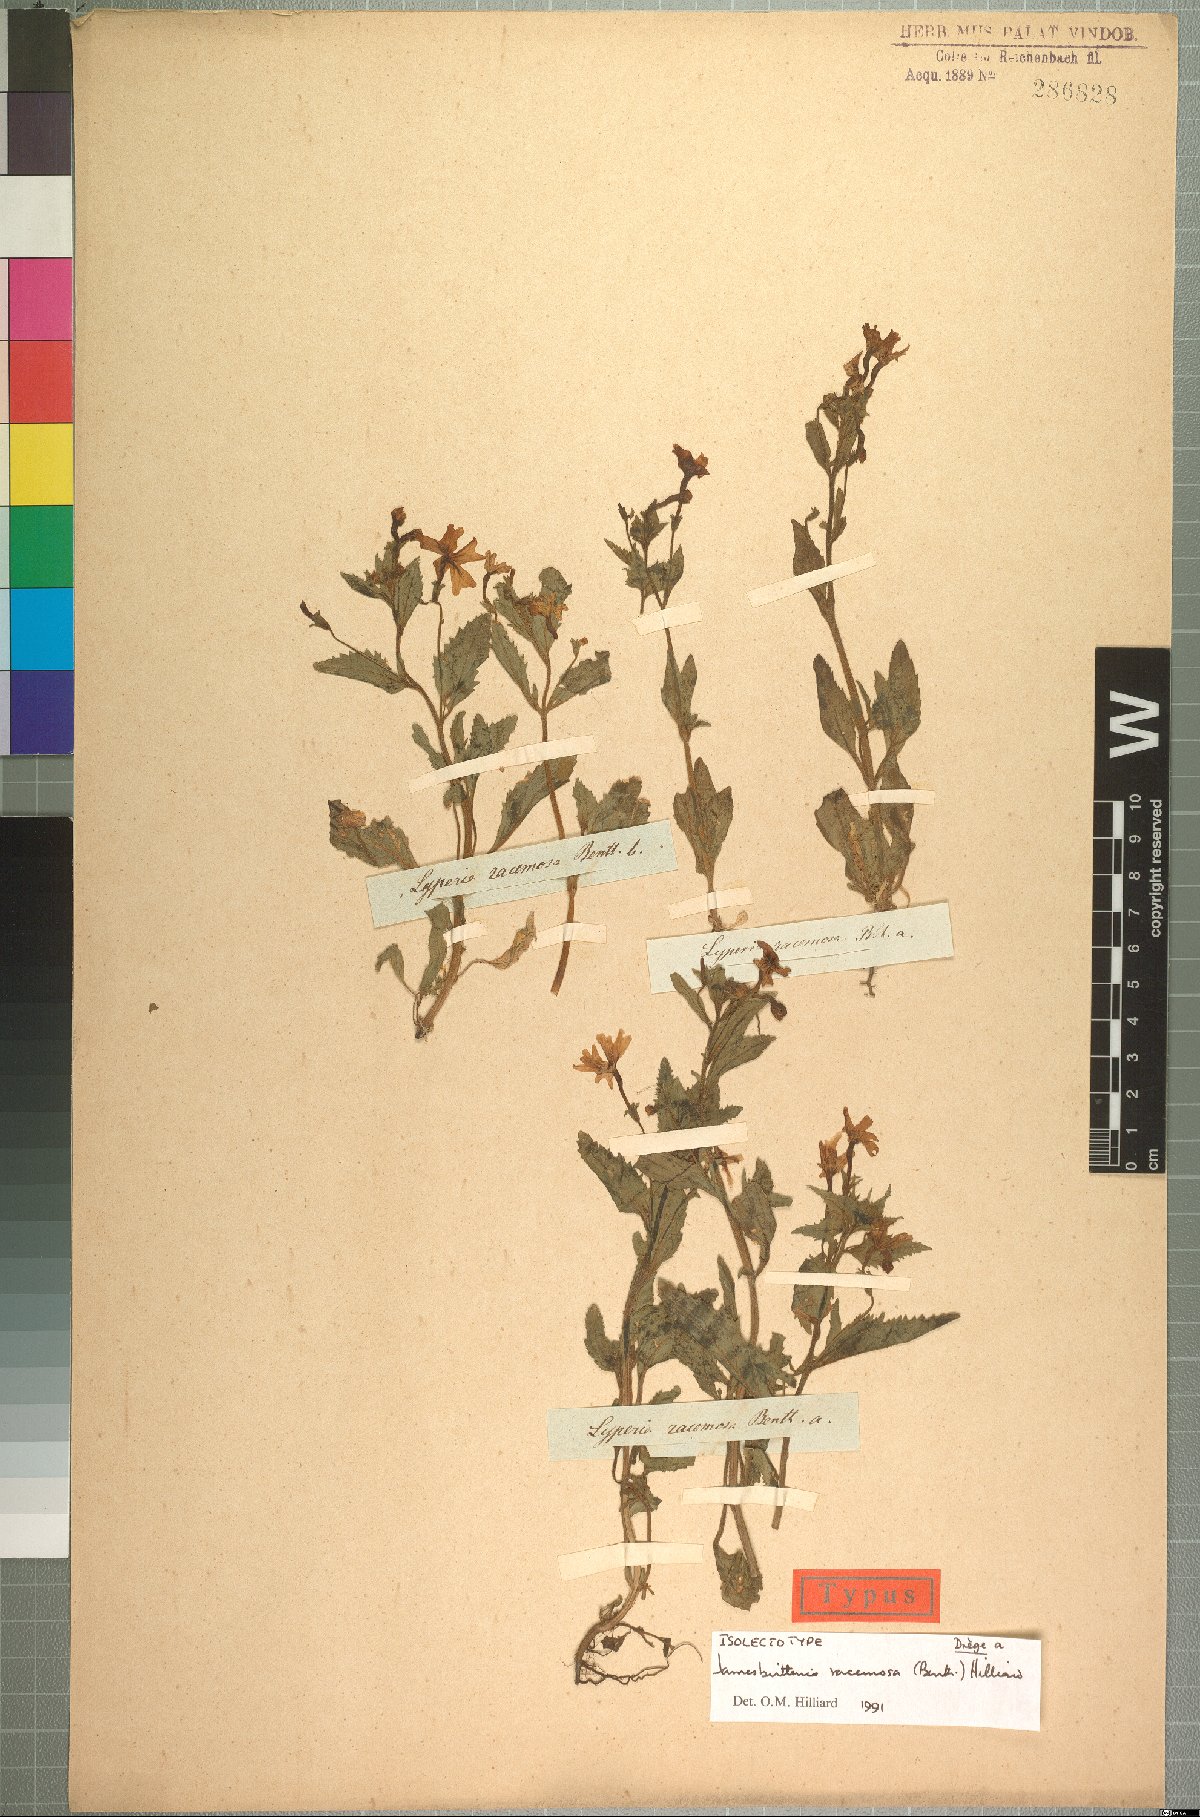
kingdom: Plantae
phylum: Tracheophyta
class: Magnoliopsida
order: Lamiales
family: Scrophulariaceae
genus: Jamesbrittenia
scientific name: Jamesbrittenia racemosa
